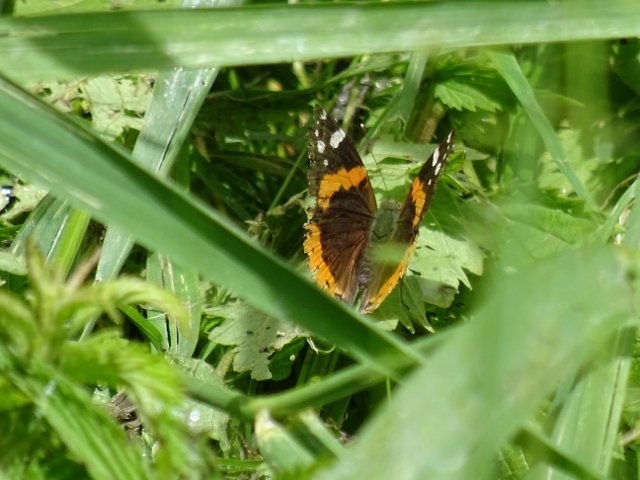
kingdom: Animalia
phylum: Arthropoda
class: Insecta
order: Lepidoptera
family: Nymphalidae
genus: Vanessa
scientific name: Vanessa atalanta
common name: Red Admiral
